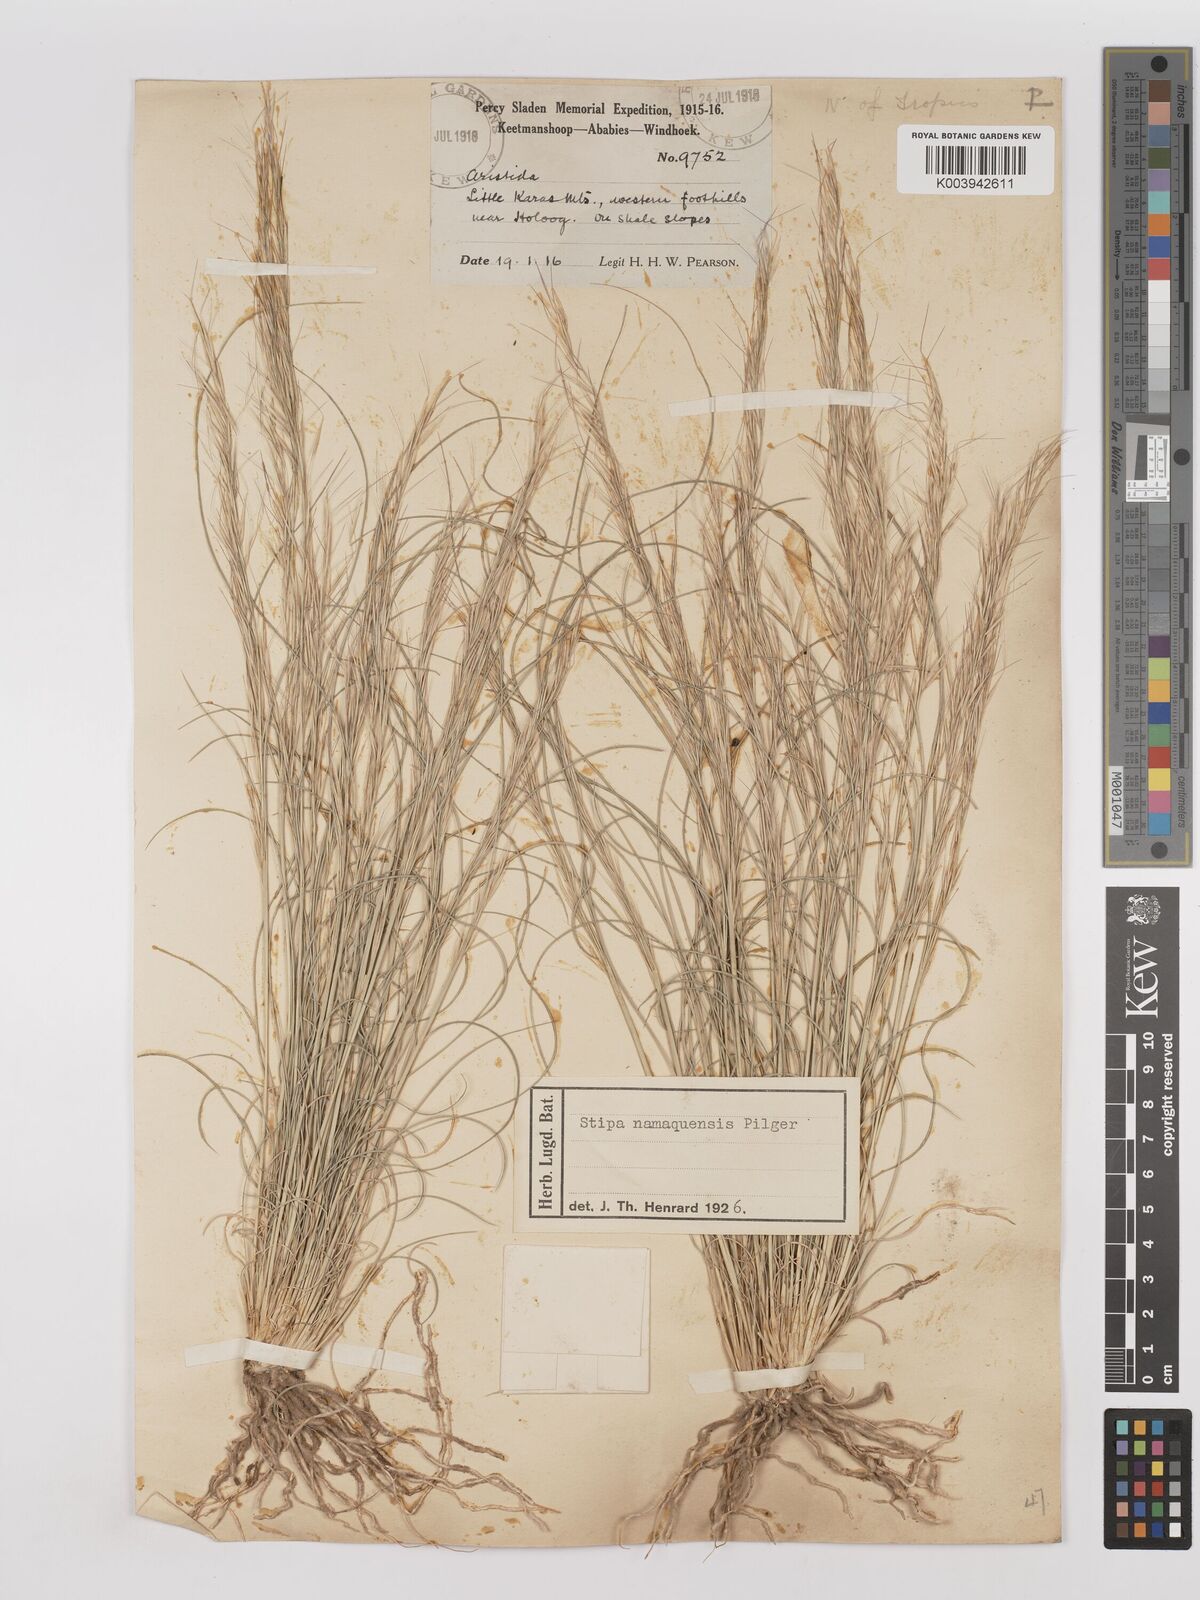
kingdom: Plantae
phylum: Tracheophyta
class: Liliopsida
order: Poales
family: Poaceae
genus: Stipagrostis
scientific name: Stipagrostis anomala
